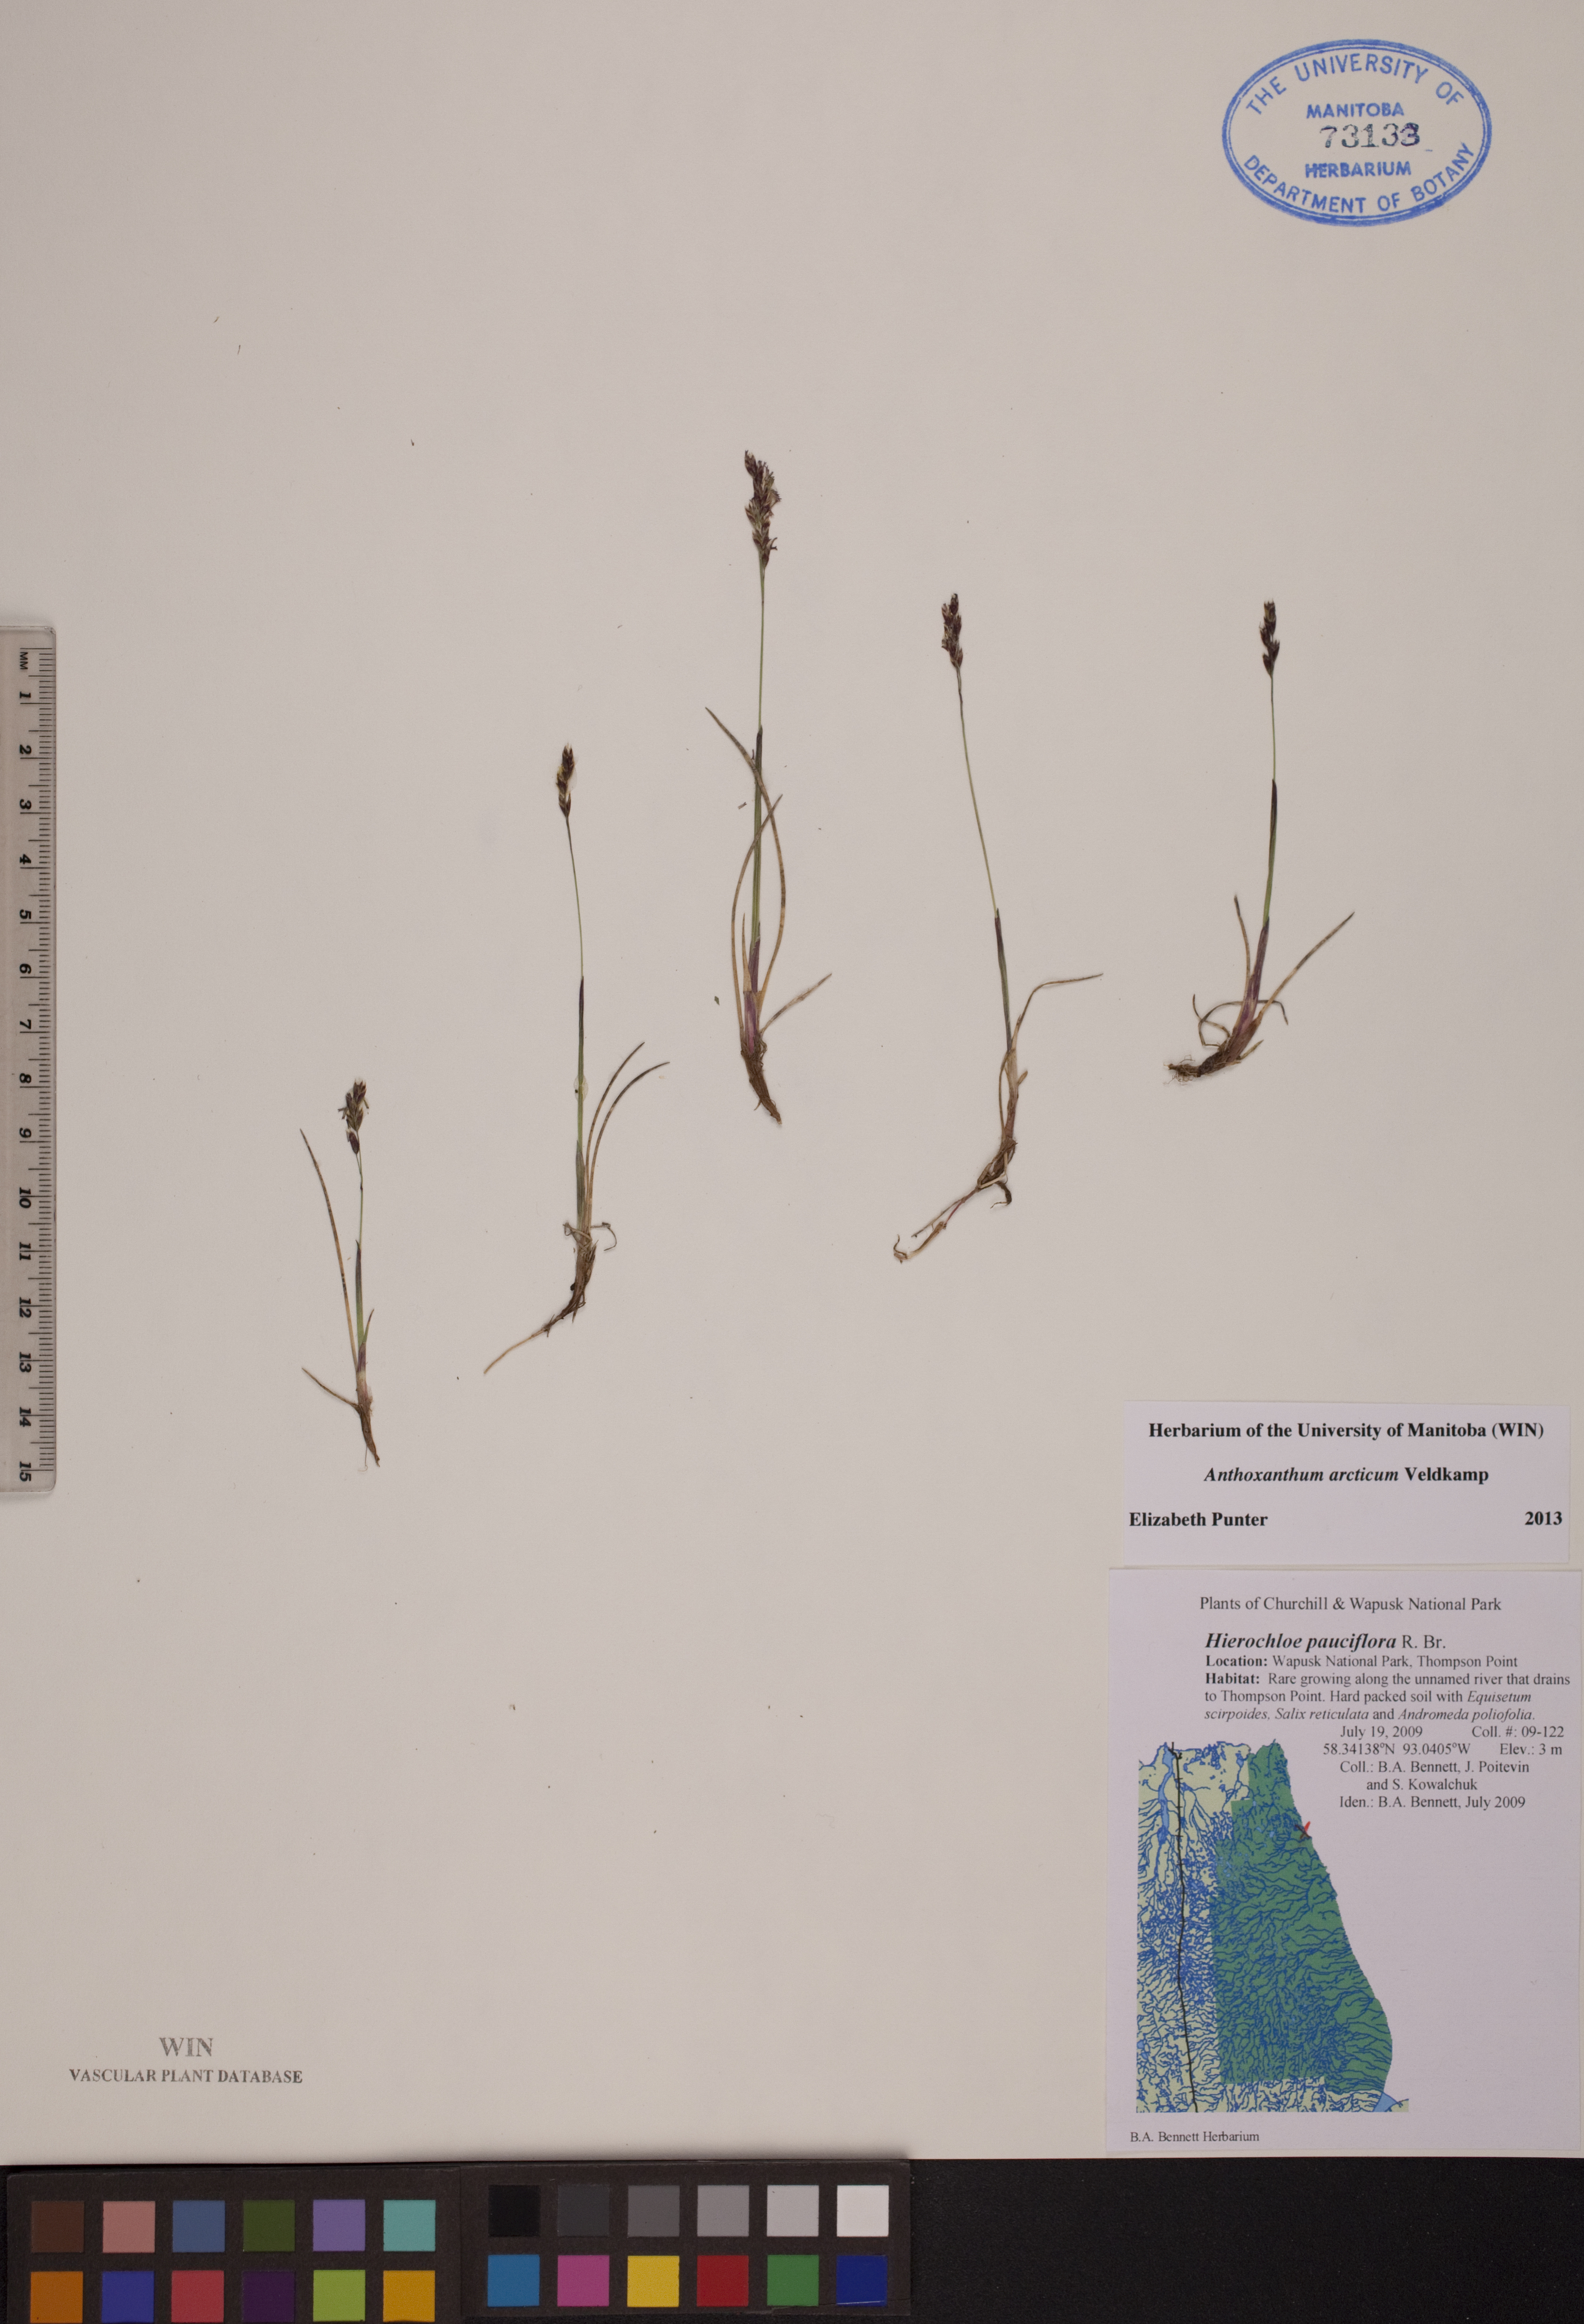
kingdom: Plantae
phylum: Tracheophyta
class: Liliopsida
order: Poales
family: Poaceae
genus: Anthoxanthum
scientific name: Anthoxanthum arcticum
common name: Arctic sweetgrass
